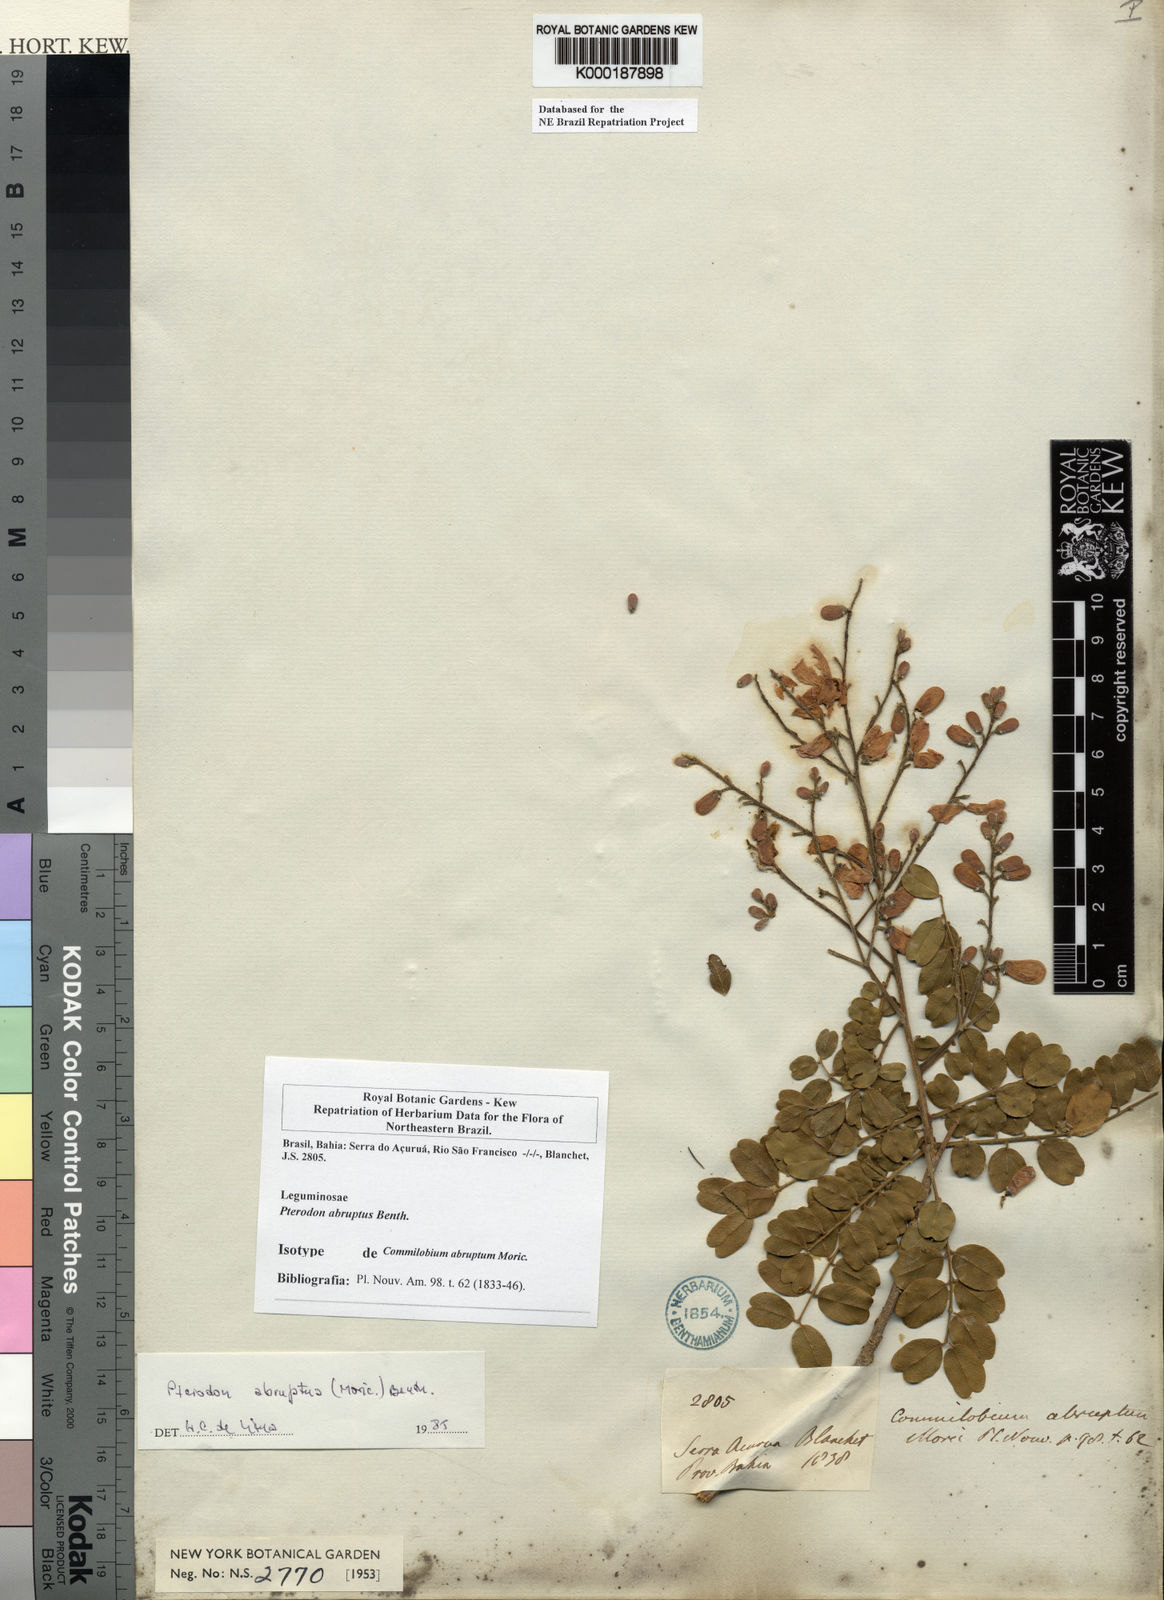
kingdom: Plantae
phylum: Tracheophyta
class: Magnoliopsida
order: Fabales
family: Fabaceae
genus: Pterodon
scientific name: Pterodon abruptus
